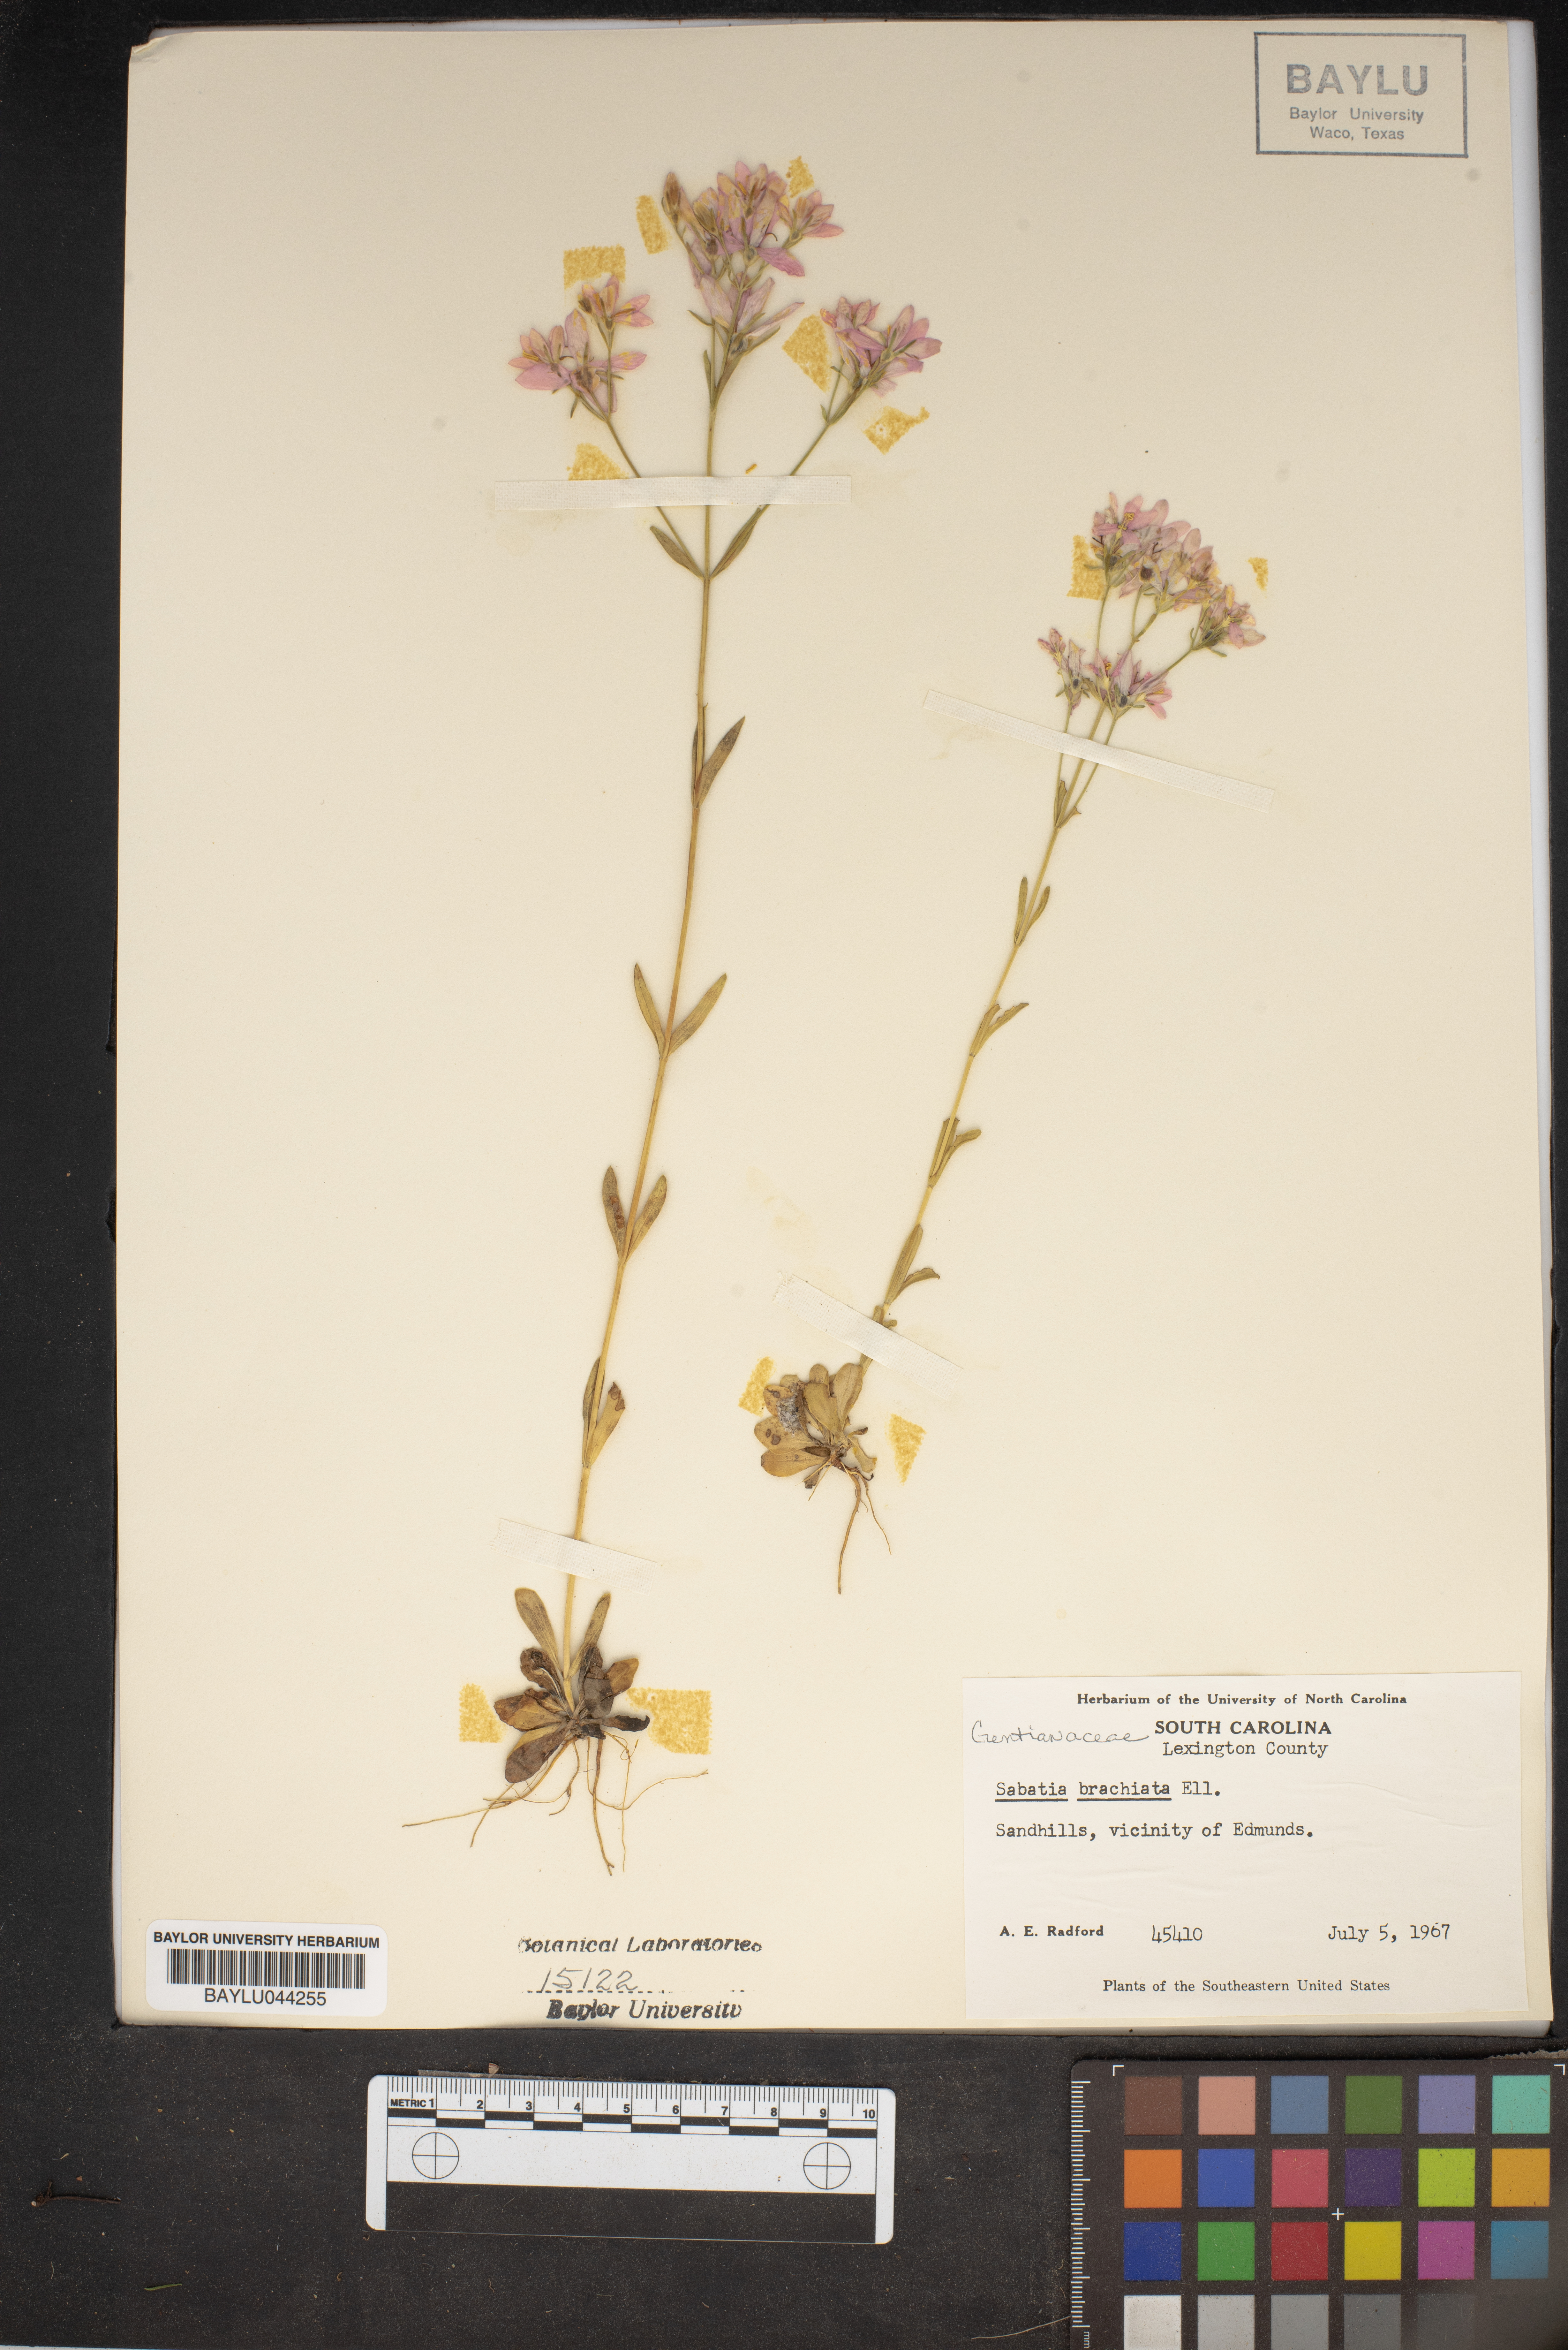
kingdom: Plantae
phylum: Tracheophyta
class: Magnoliopsida
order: Gentianales
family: Gentianaceae
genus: Sabatia
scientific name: Sabatia brachiata
